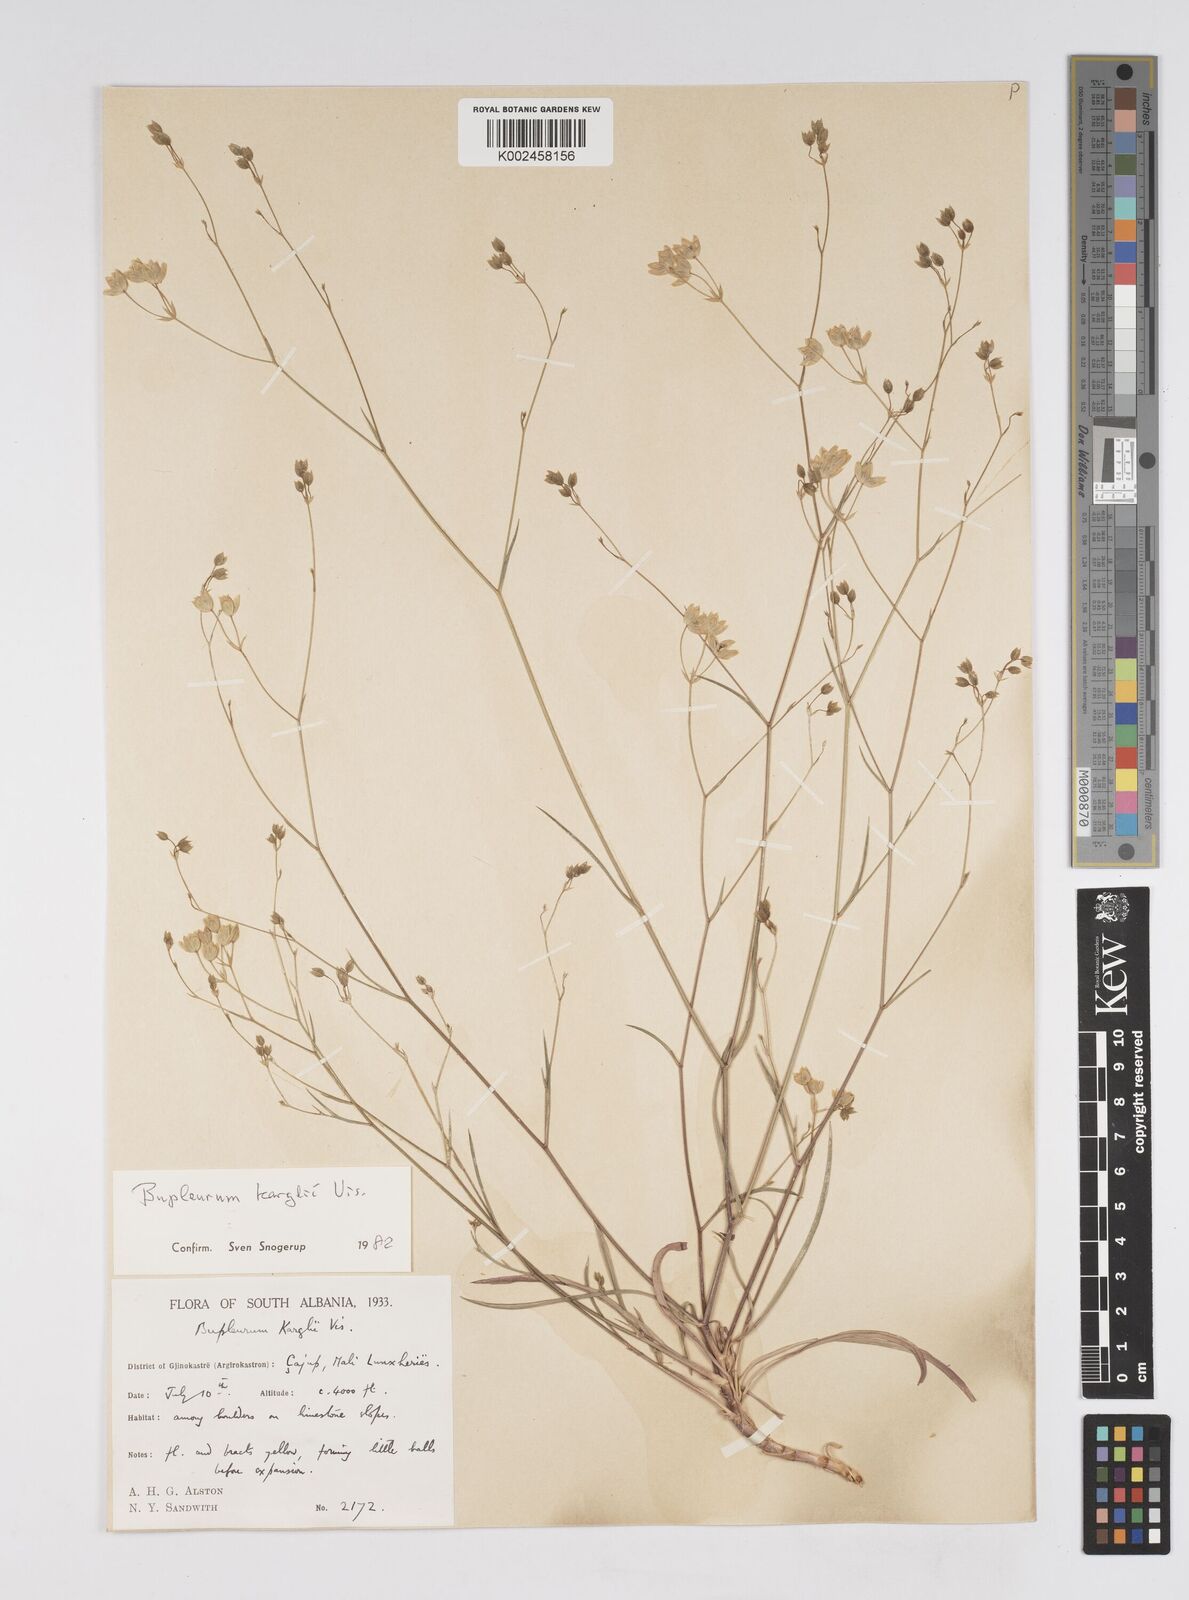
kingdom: Plantae
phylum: Tracheophyta
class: Magnoliopsida
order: Apiales
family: Apiaceae
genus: Bupleurum
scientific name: Bupleurum karglii
